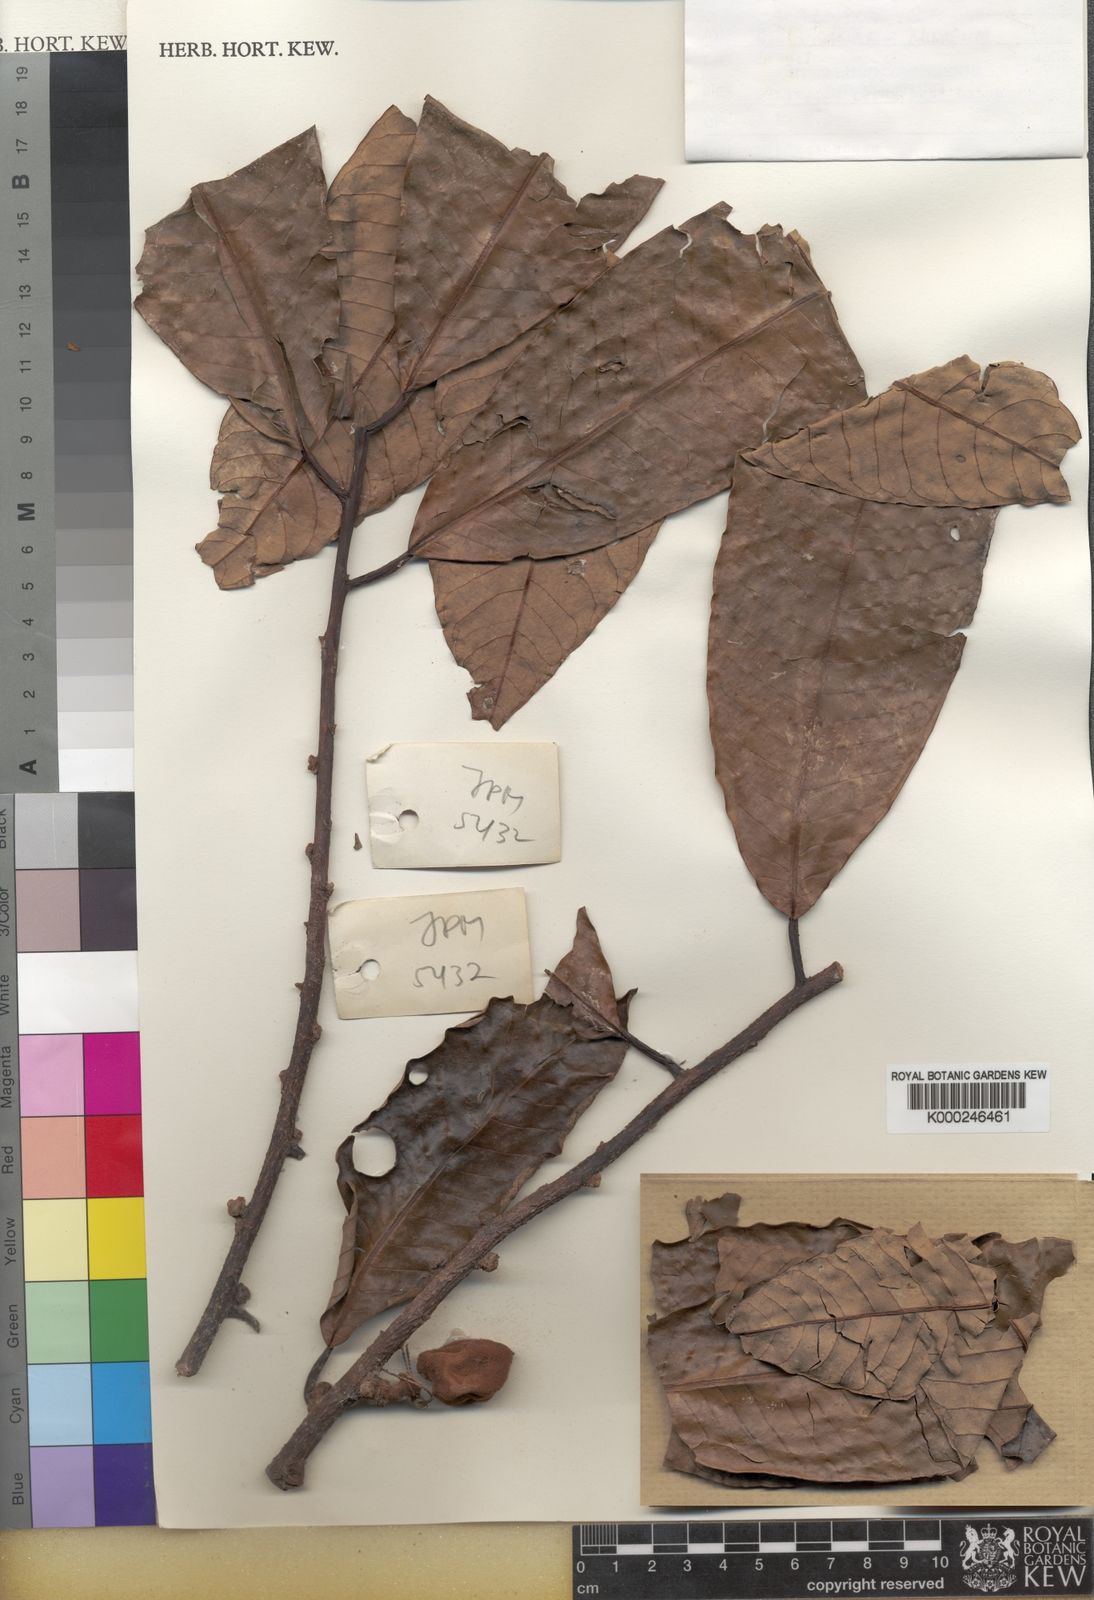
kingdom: Plantae
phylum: Tracheophyta
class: Magnoliopsida
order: Magnoliales
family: Myristicaceae
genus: Myristica
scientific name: Myristica fatua
